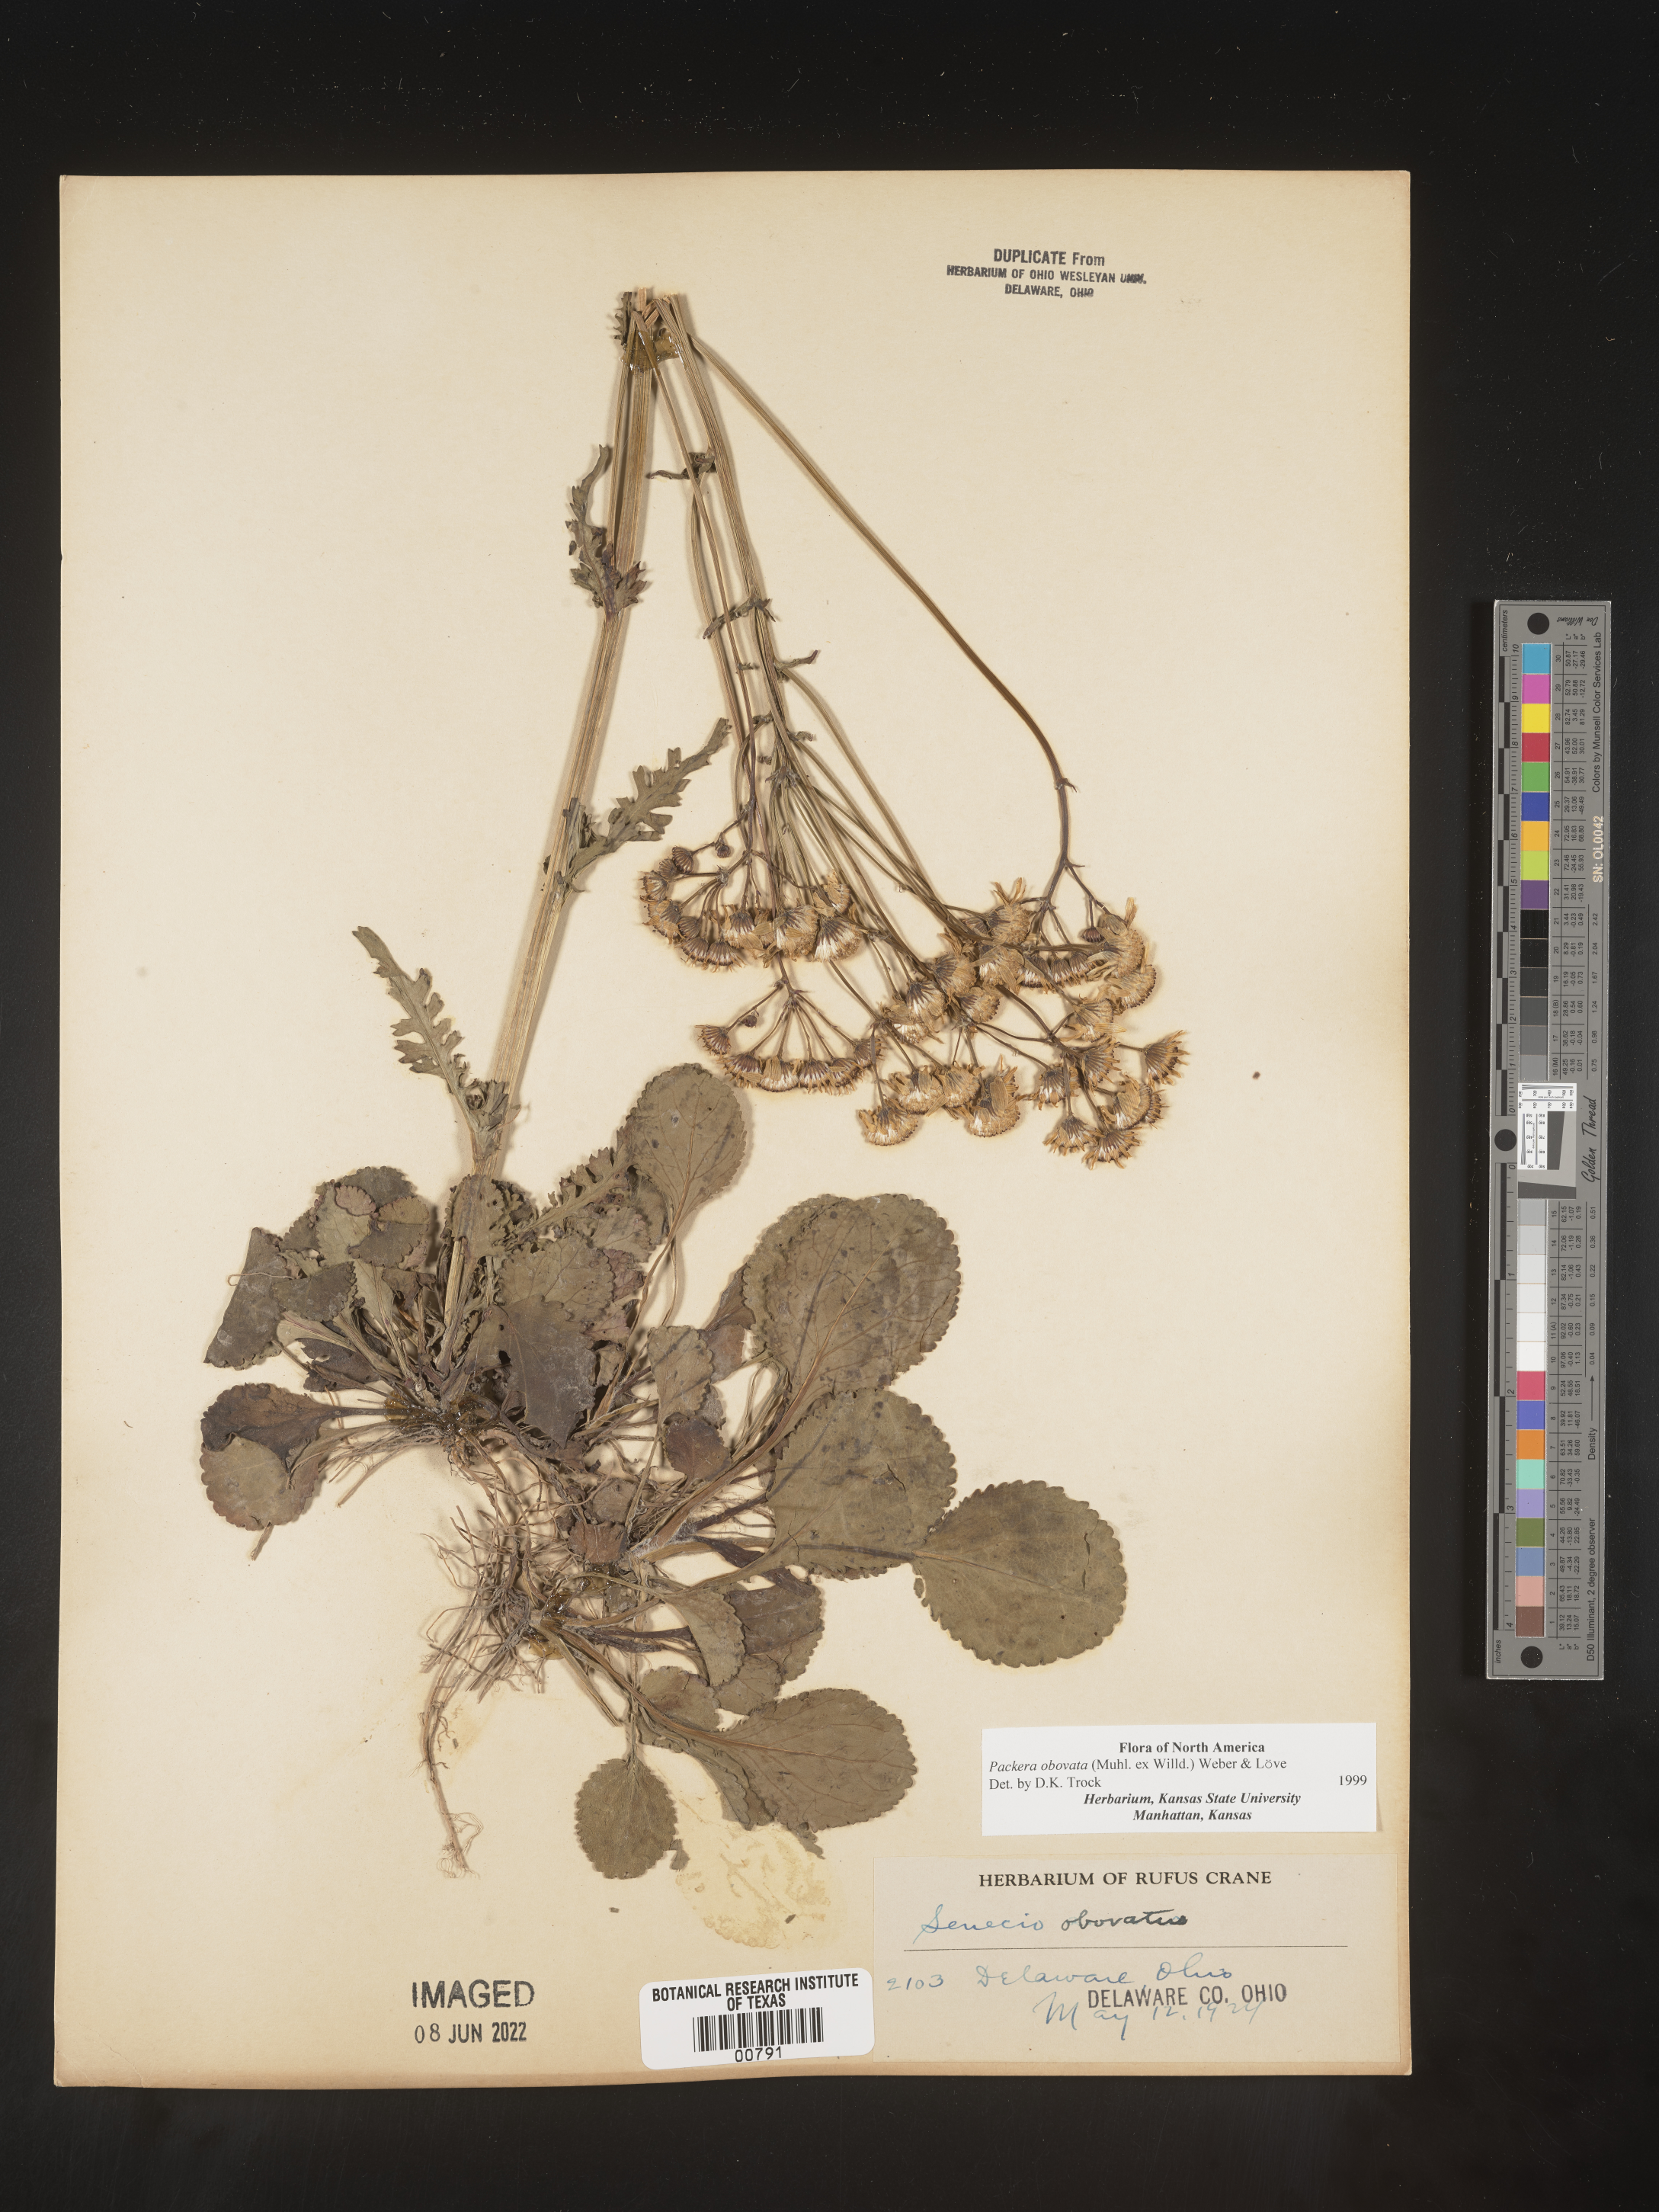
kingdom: Plantae
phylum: Tracheophyta
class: Magnoliopsida
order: Asterales
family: Asteraceae
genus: Packera
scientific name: Packera obovata
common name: Round-leaf ragwort
